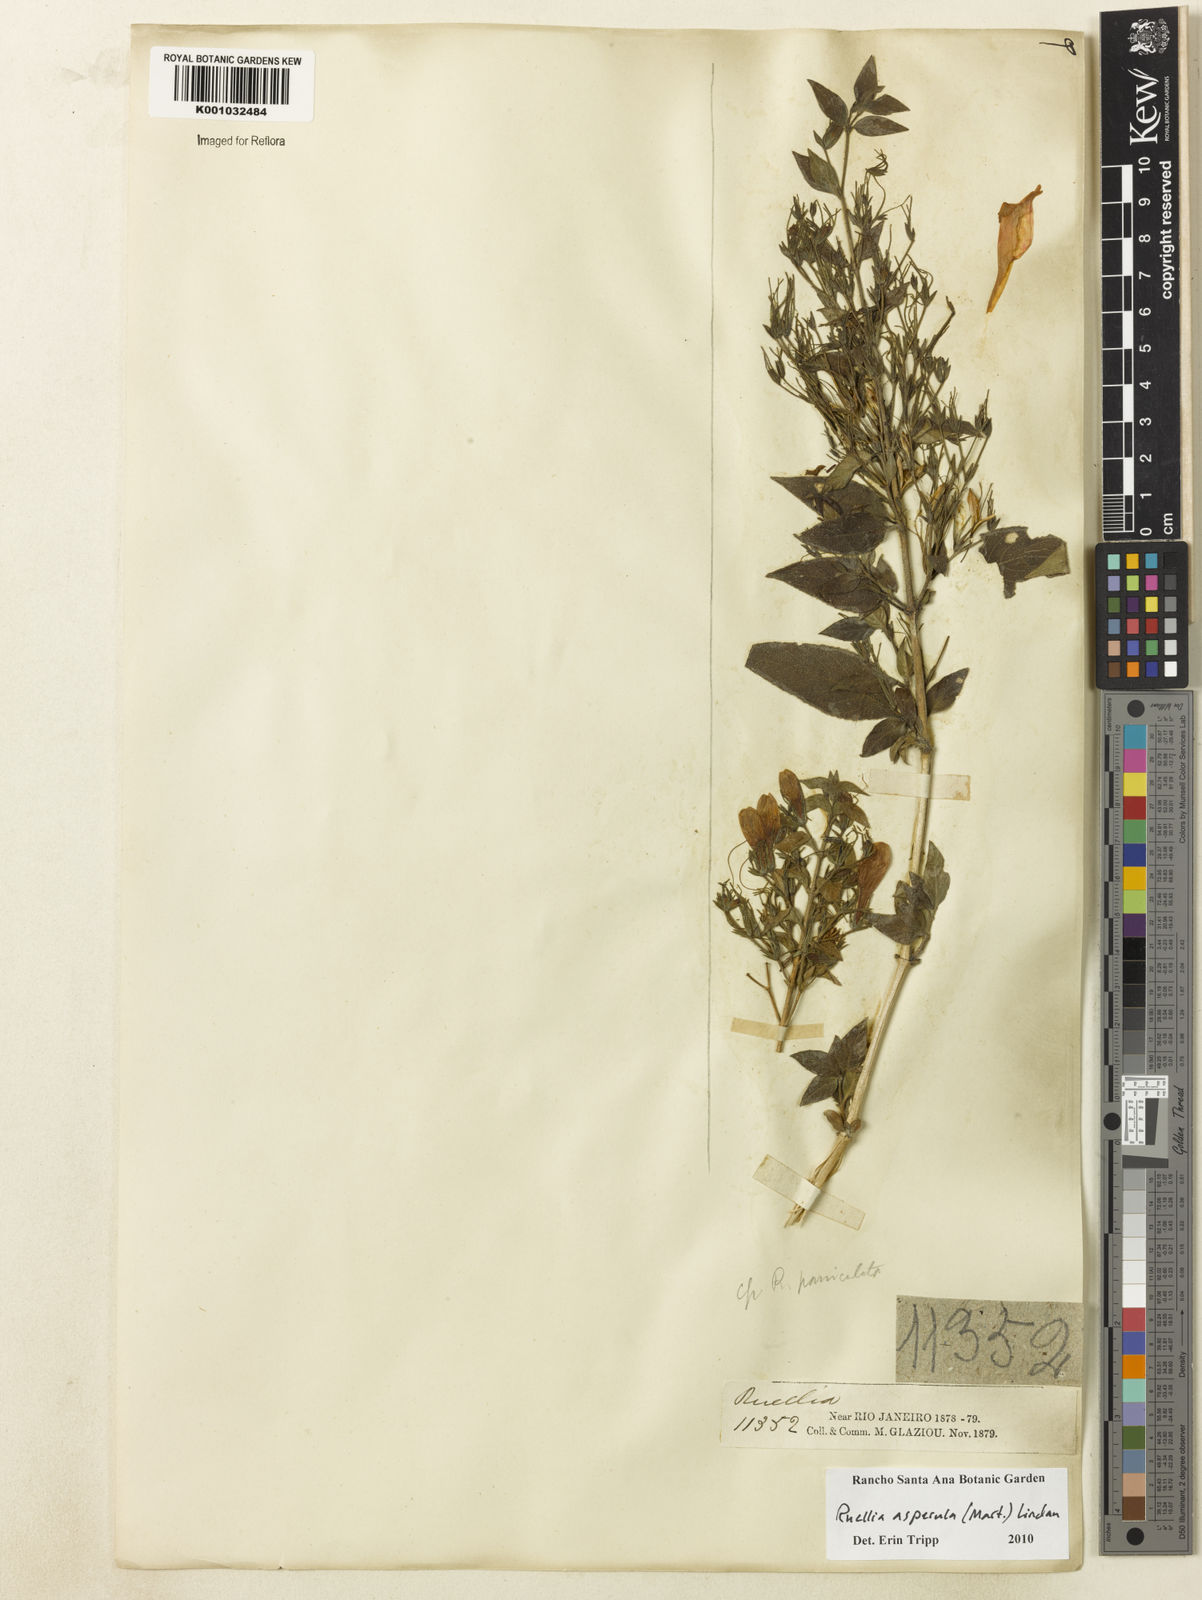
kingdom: Plantae
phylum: Tracheophyta
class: Magnoliopsida
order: Lamiales
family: Acanthaceae
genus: Ruellia
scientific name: Ruellia asperula
